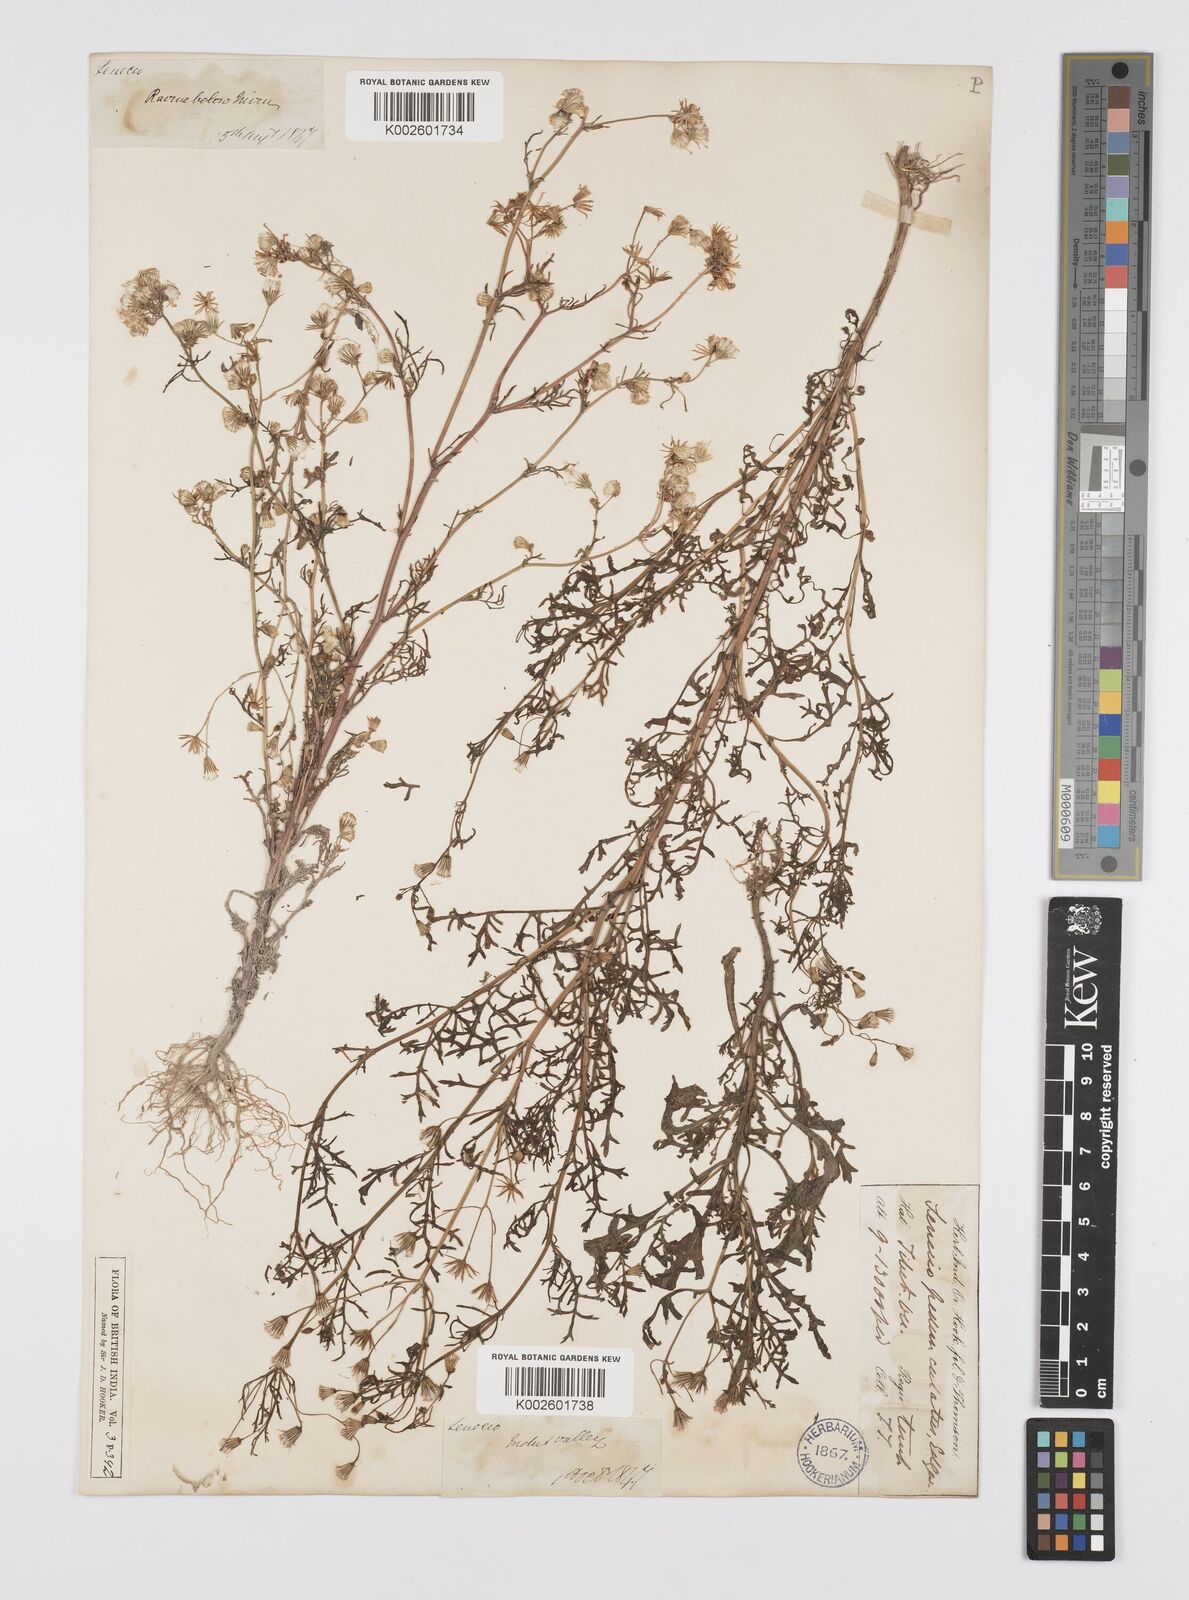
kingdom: Plantae
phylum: Tracheophyta
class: Magnoliopsida
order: Asterales
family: Asteraceae
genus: Senecio
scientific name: Senecio krascheninnikovii
